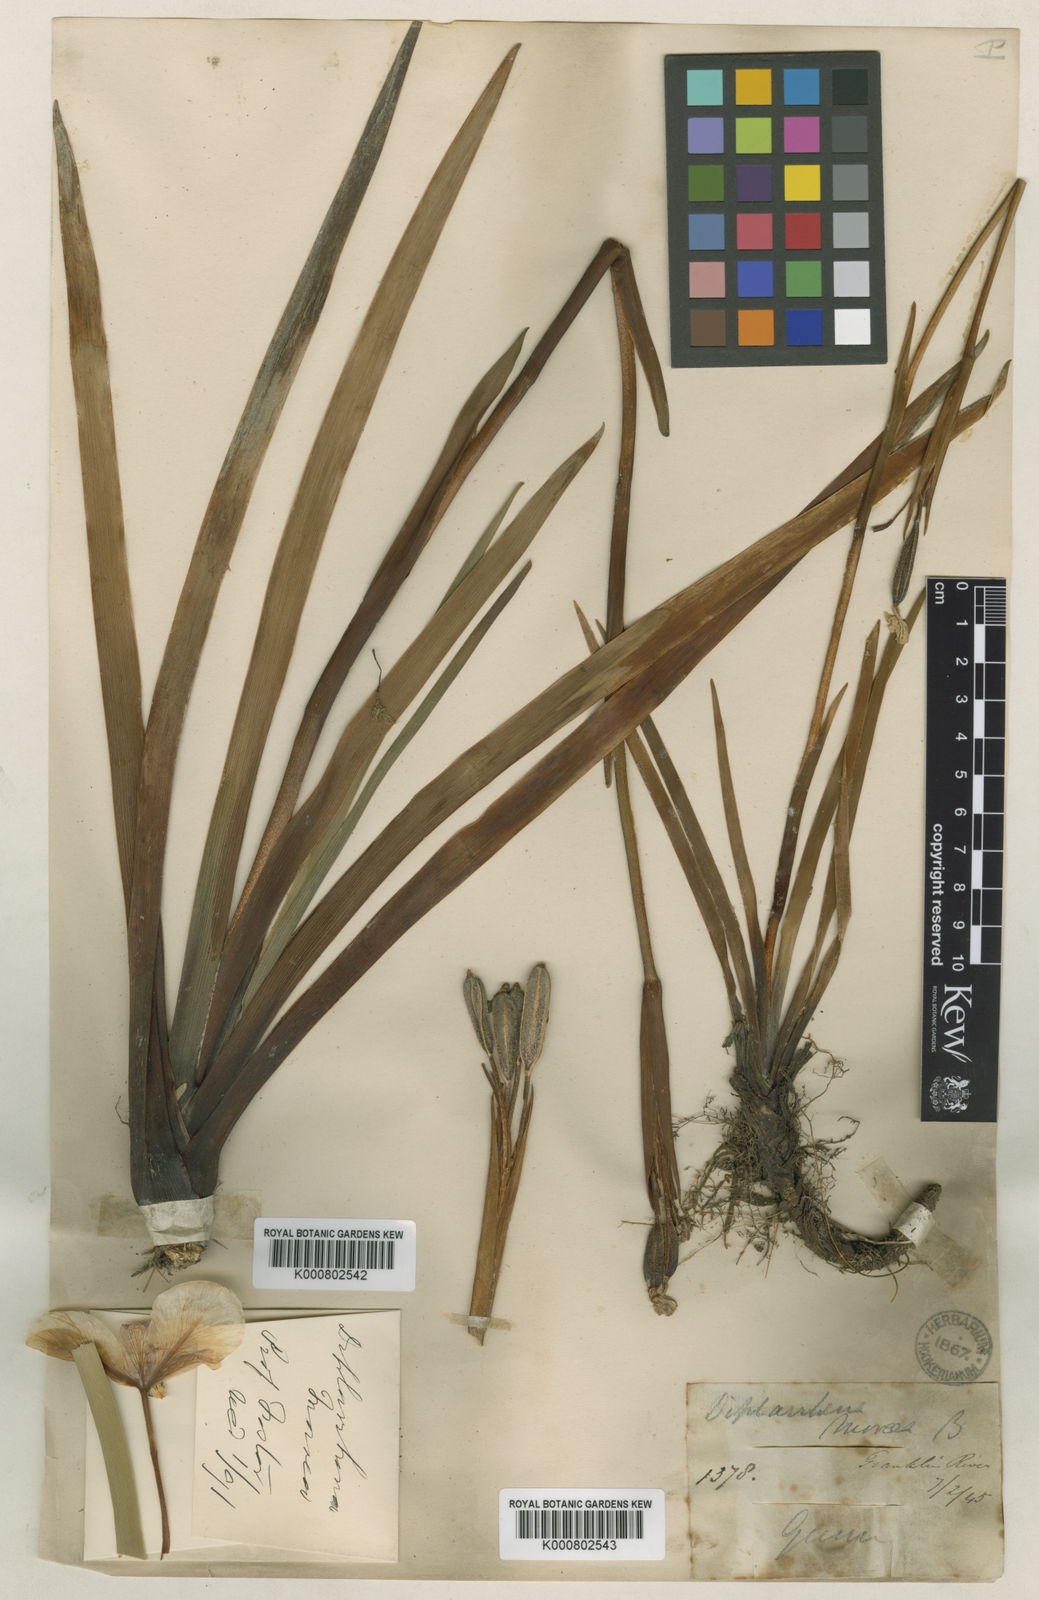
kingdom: Plantae
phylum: Tracheophyta
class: Liliopsida
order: Asparagales
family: Iridaceae
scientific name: Iridaceae
